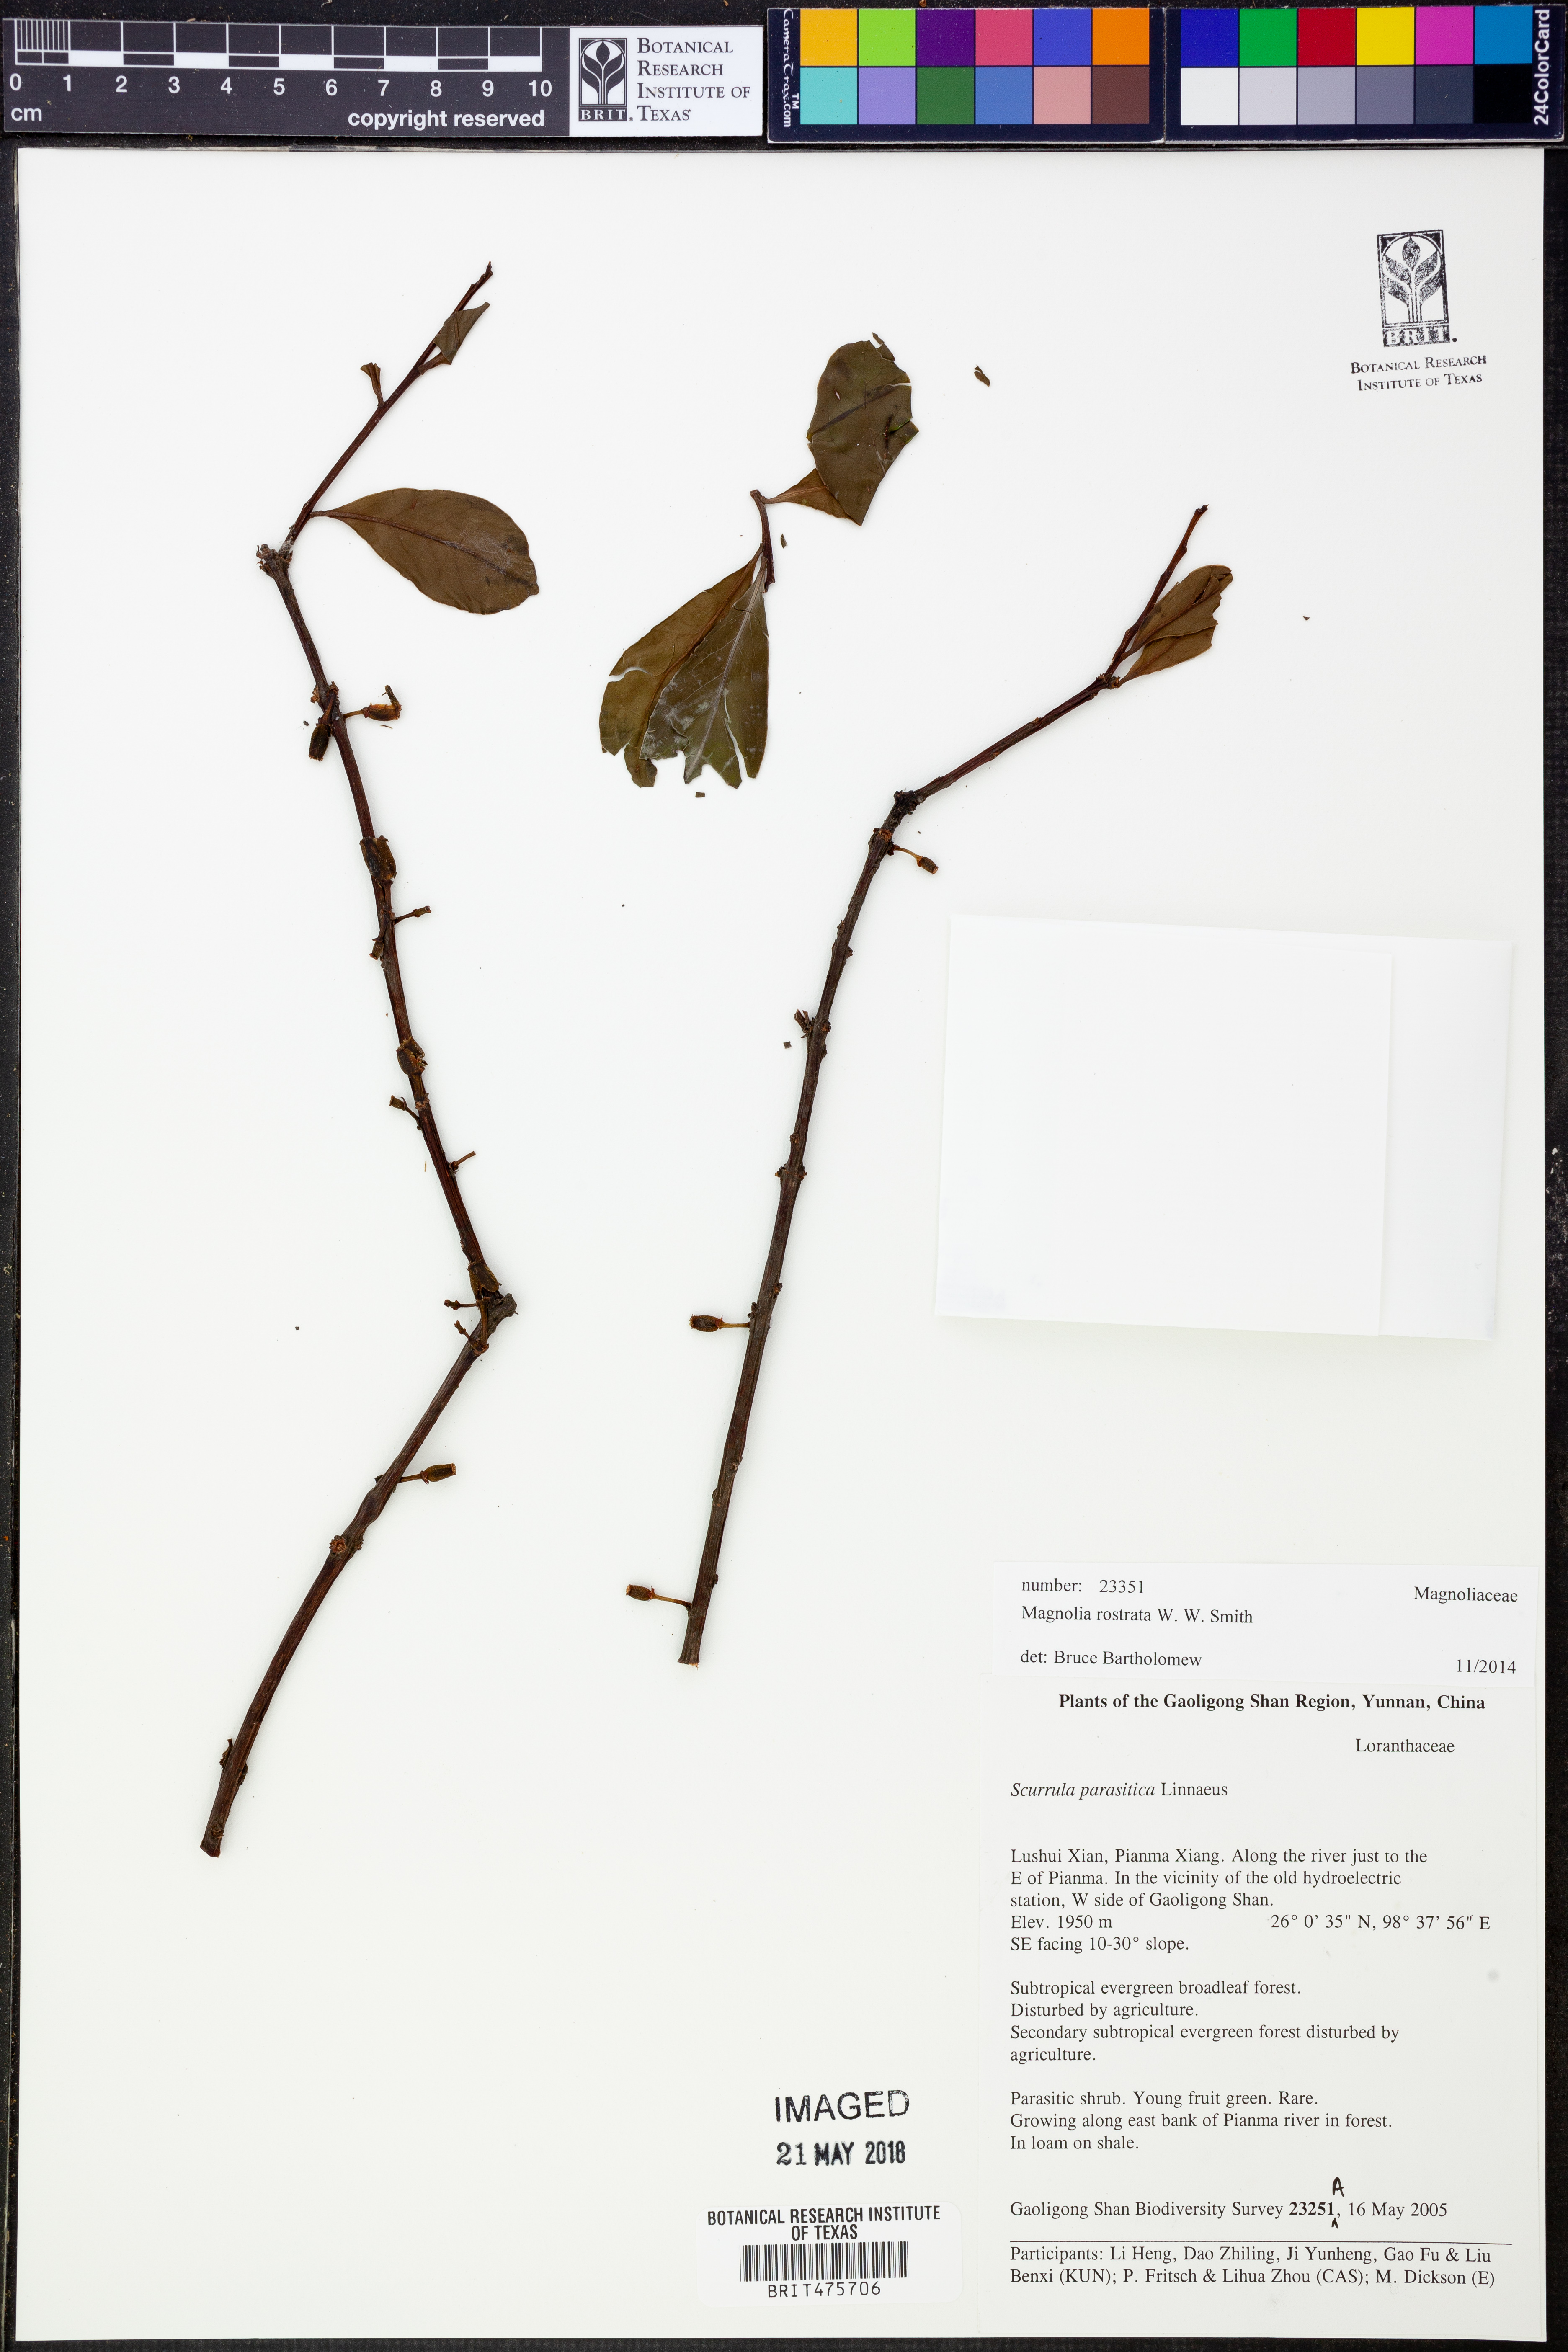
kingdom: Plantae
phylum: Tracheophyta
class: Magnoliopsida
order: Santalales
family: Loranthaceae
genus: Taxillus
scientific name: Taxillus delavayi
